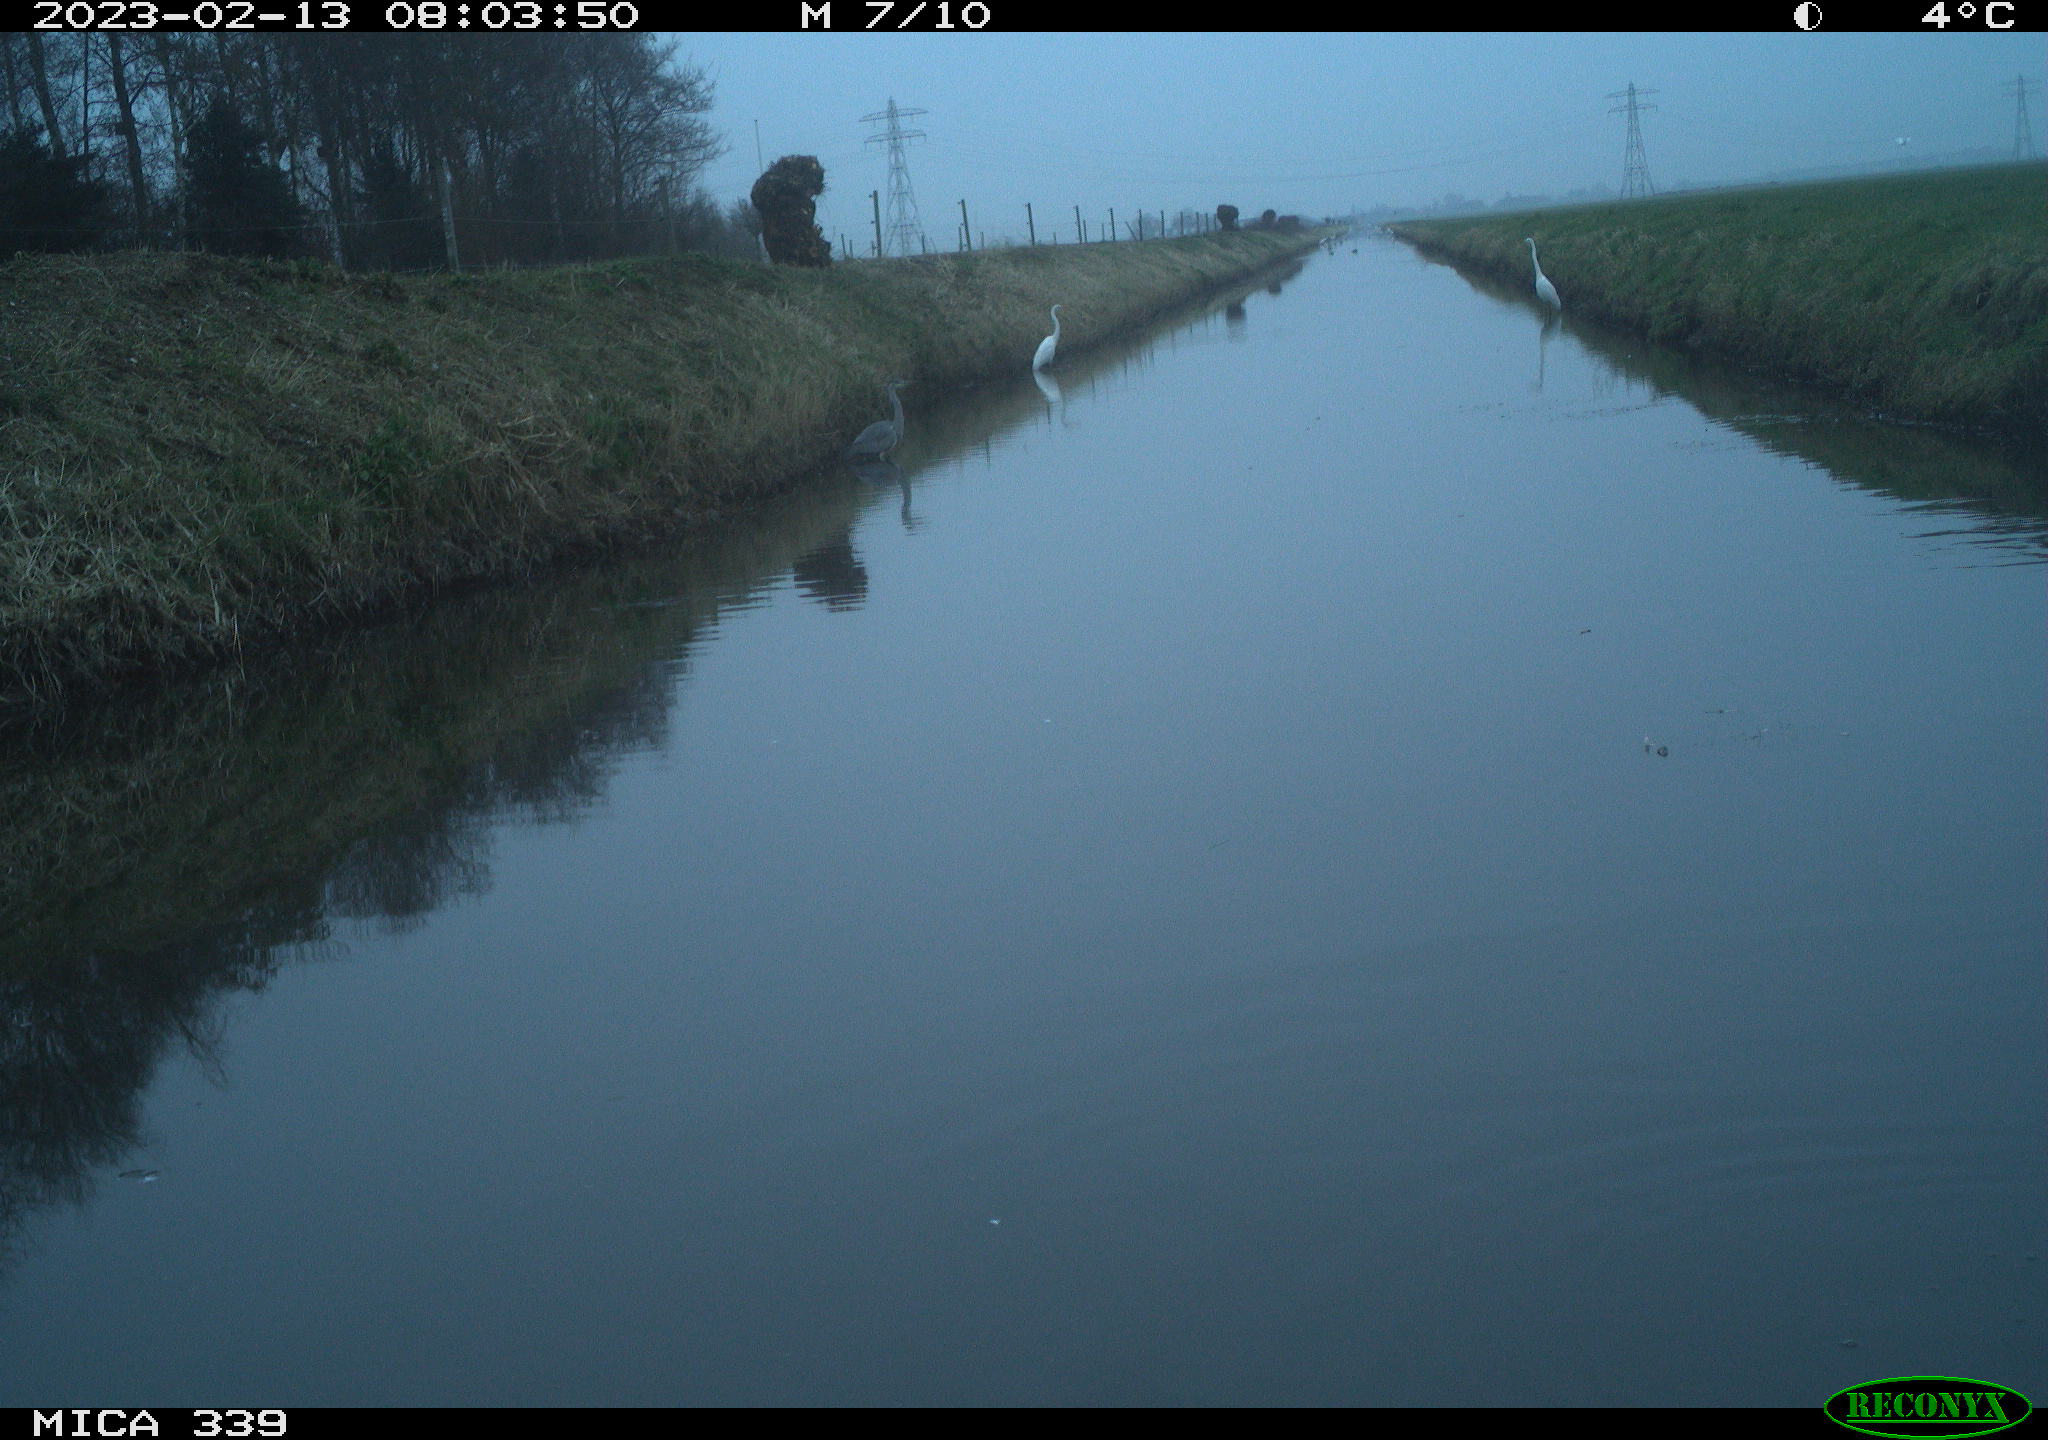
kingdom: Animalia
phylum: Chordata
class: Aves
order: Pelecaniformes
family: Ardeidae
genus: Ardea
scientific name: Ardea alba
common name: Great egret
